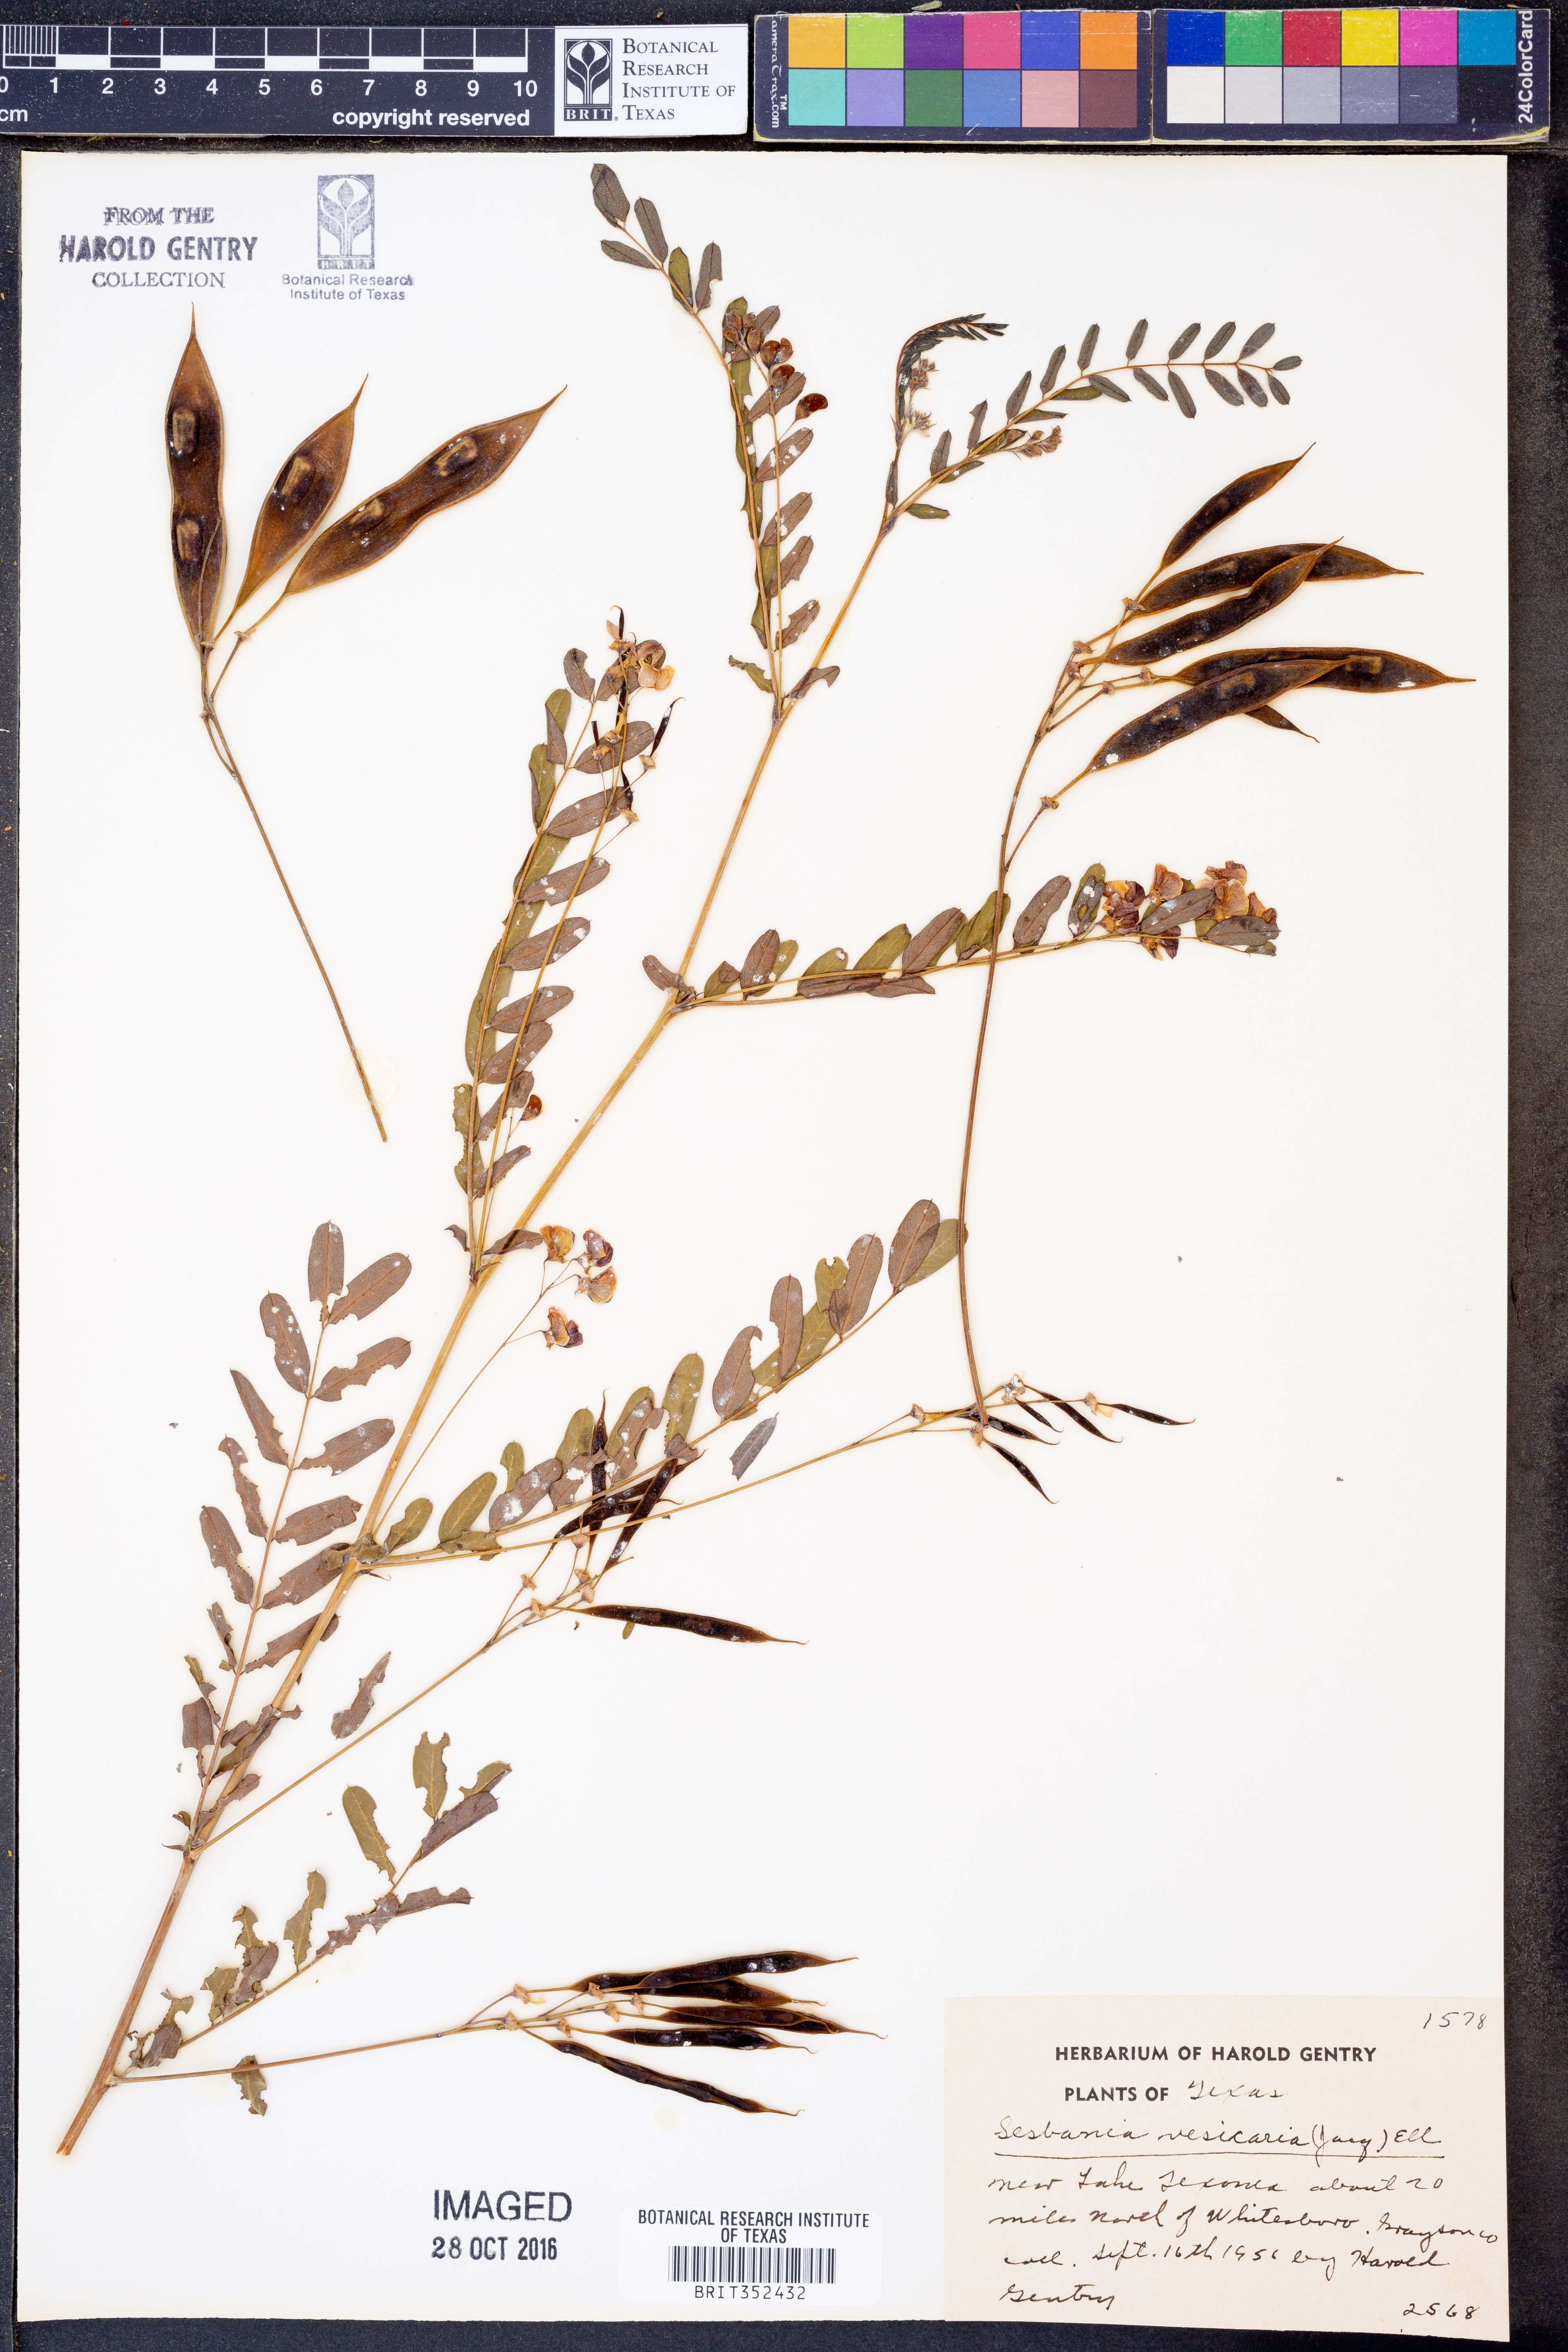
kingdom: Plantae
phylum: Tracheophyta
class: Magnoliopsida
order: Fabales
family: Fabaceae
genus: Sesbania
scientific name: Sesbania vesicaria
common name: Bagpod
